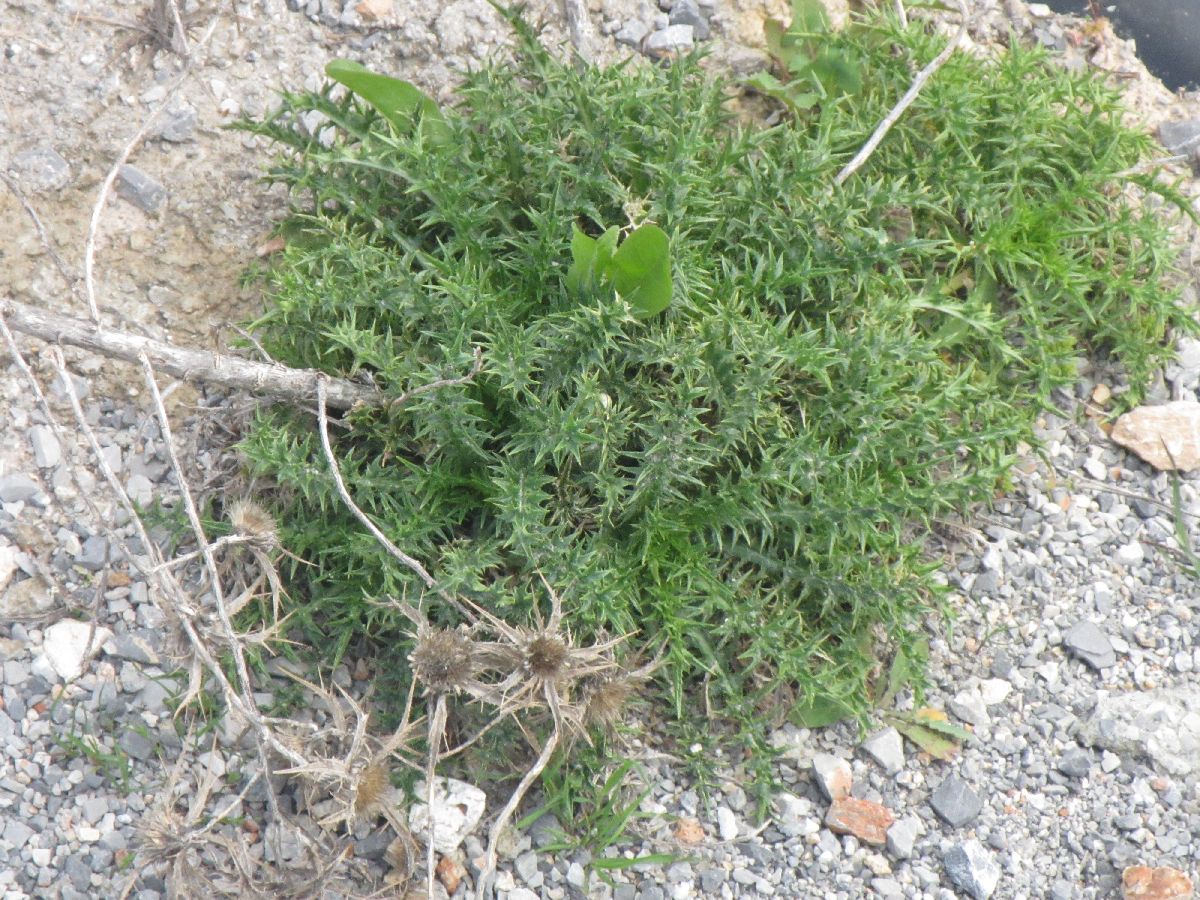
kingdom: Plantae
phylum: Tracheophyta
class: Magnoliopsida
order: Asterales
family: Asteraceae
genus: Carlina
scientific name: Carlina graeca
